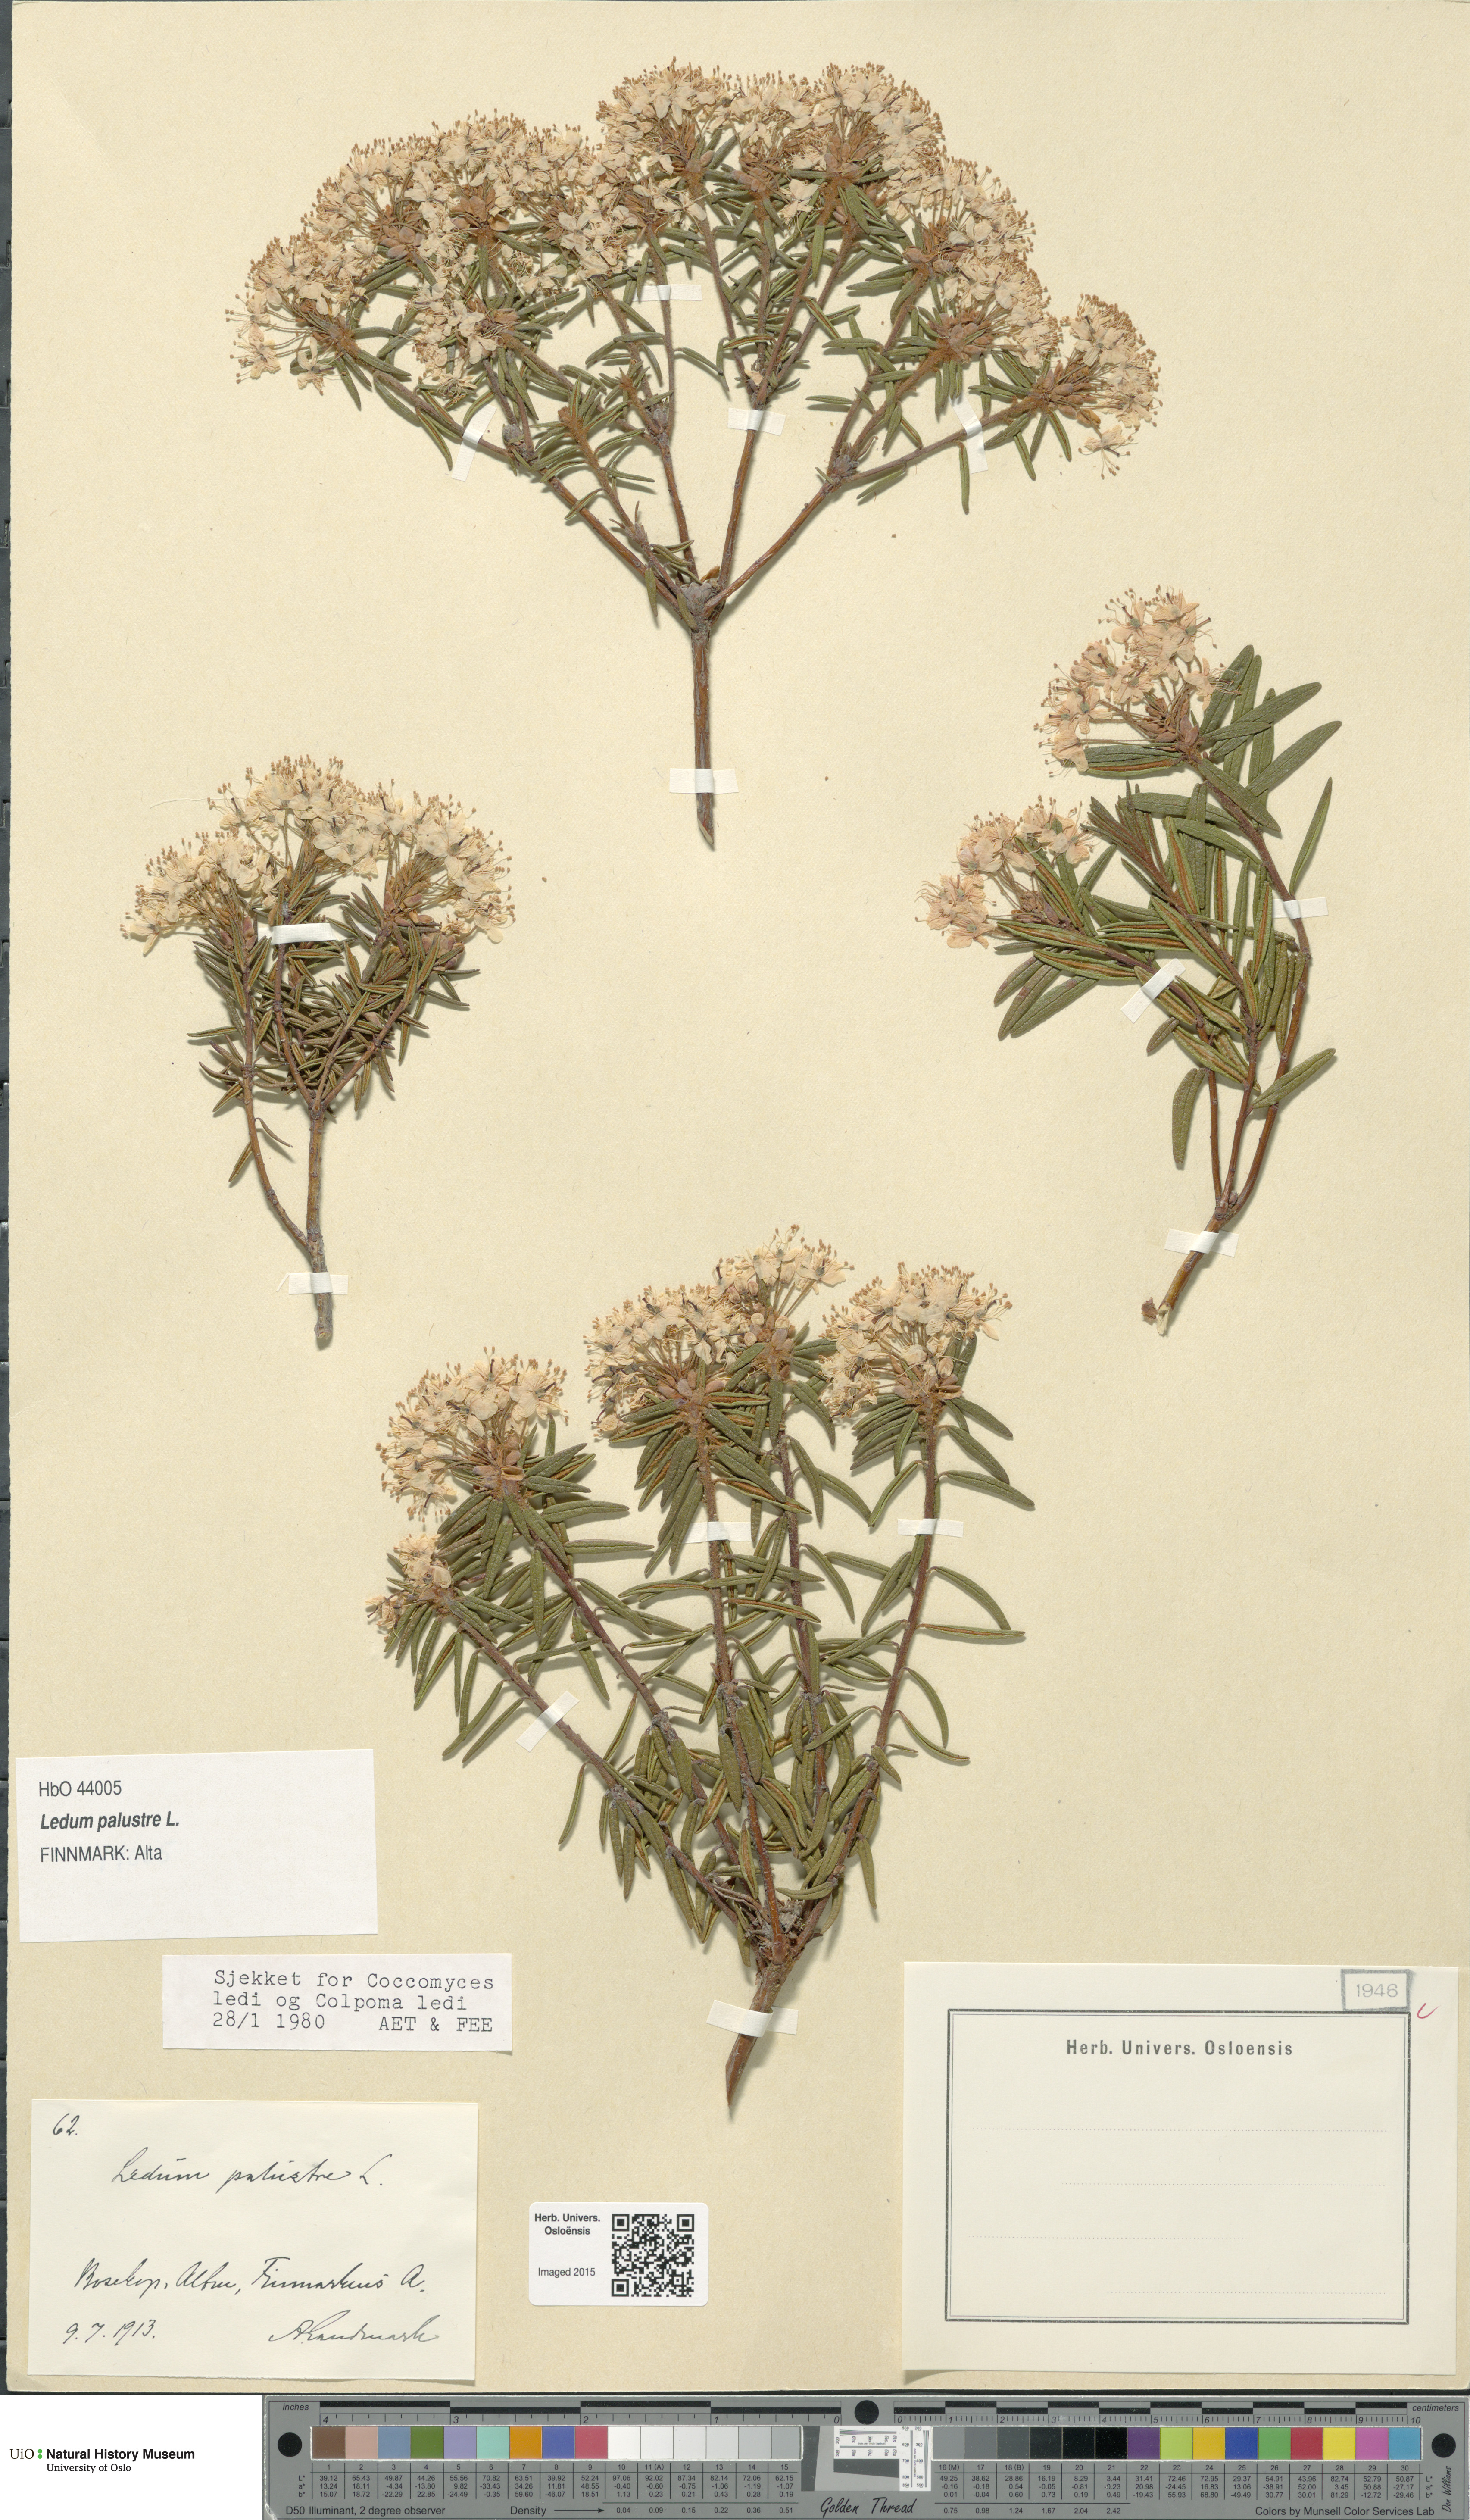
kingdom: Plantae
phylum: Tracheophyta
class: Magnoliopsida
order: Ericales
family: Ericaceae
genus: Rhododendron
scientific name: Rhododendron tomentosum
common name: Marsh labrador tea
